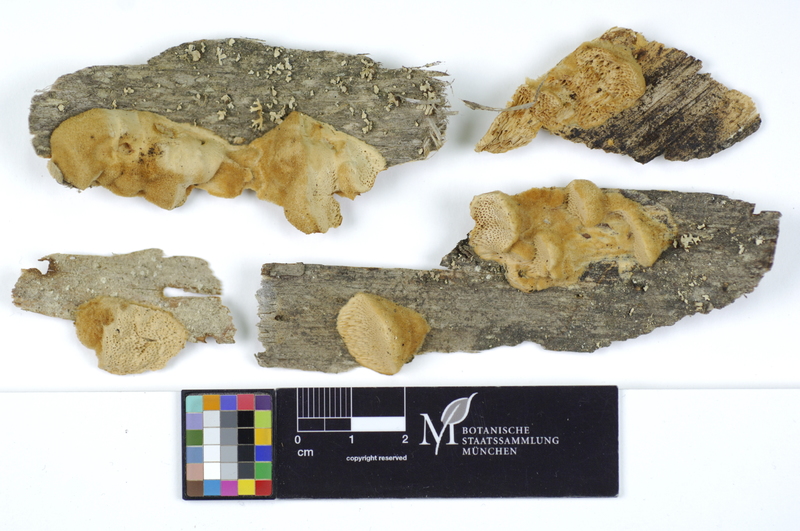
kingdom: Plantae
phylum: Tracheophyta
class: Pinopsida
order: Pinales
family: Pinaceae
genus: Pinus
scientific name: Pinus mugo
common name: Mugo pine
